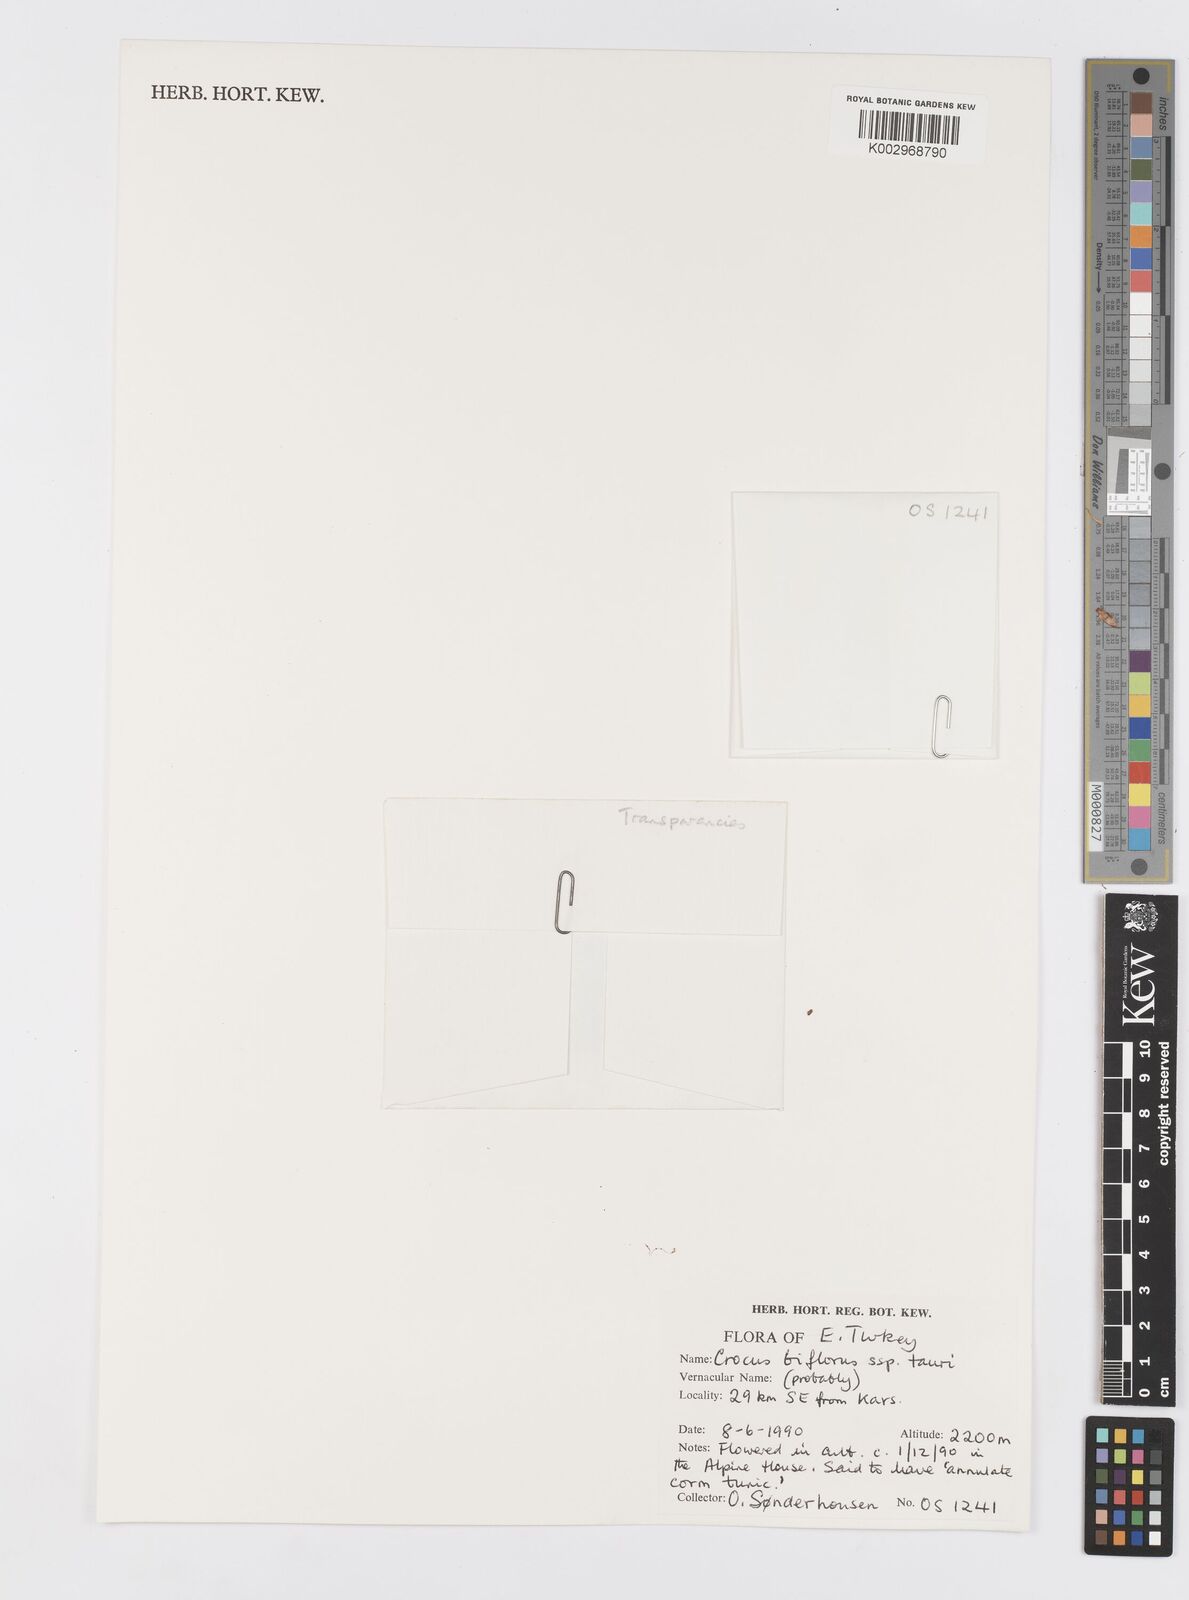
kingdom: Plantae
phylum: Tracheophyta
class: Liliopsida
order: Asparagales
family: Iridaceae
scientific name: Iridaceae
